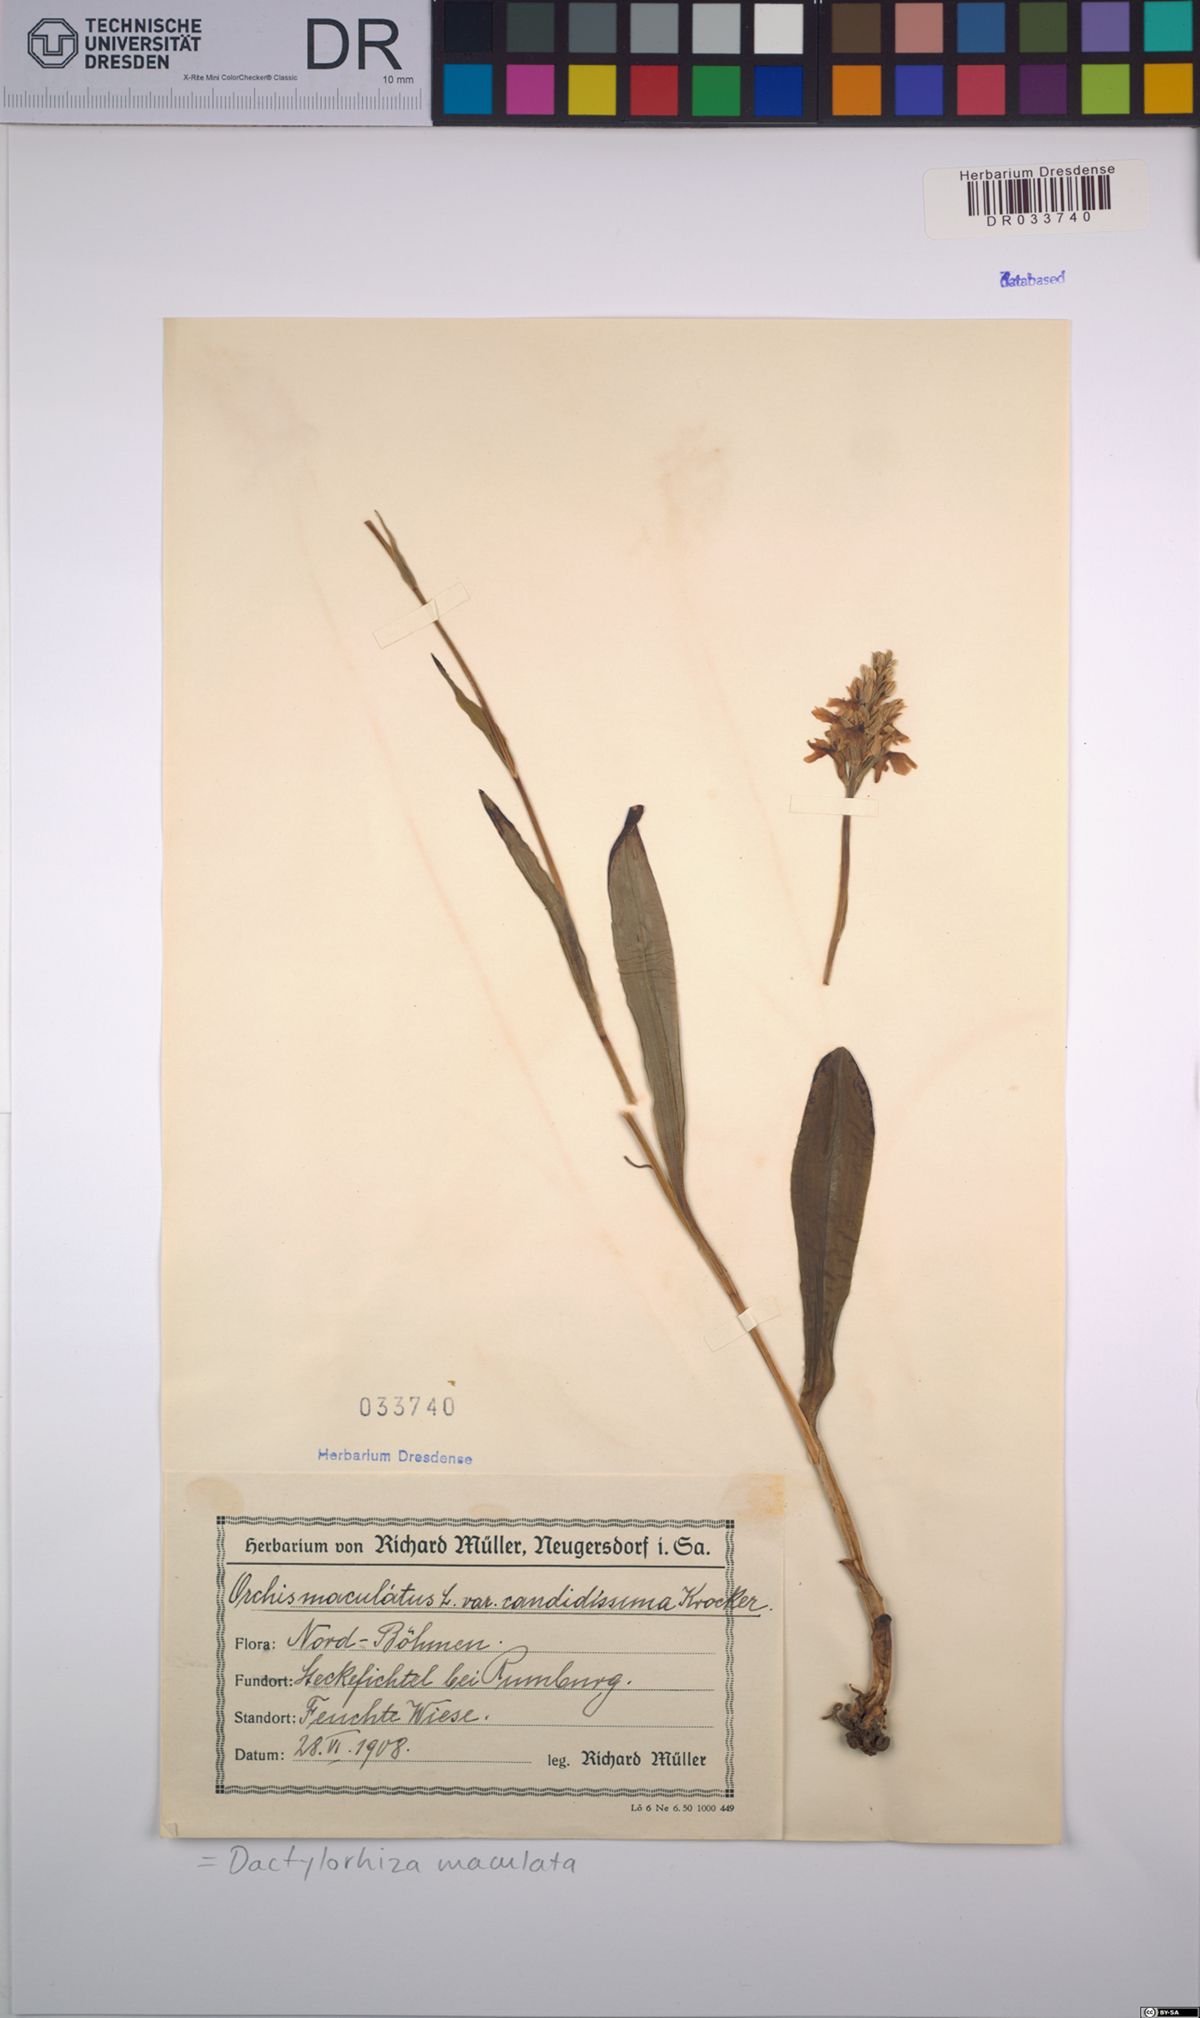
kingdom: Plantae
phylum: Tracheophyta
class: Liliopsida
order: Asparagales
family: Orchidaceae
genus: Dactylorhiza
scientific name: Dactylorhiza maculata
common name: Heath spotted-orchid
